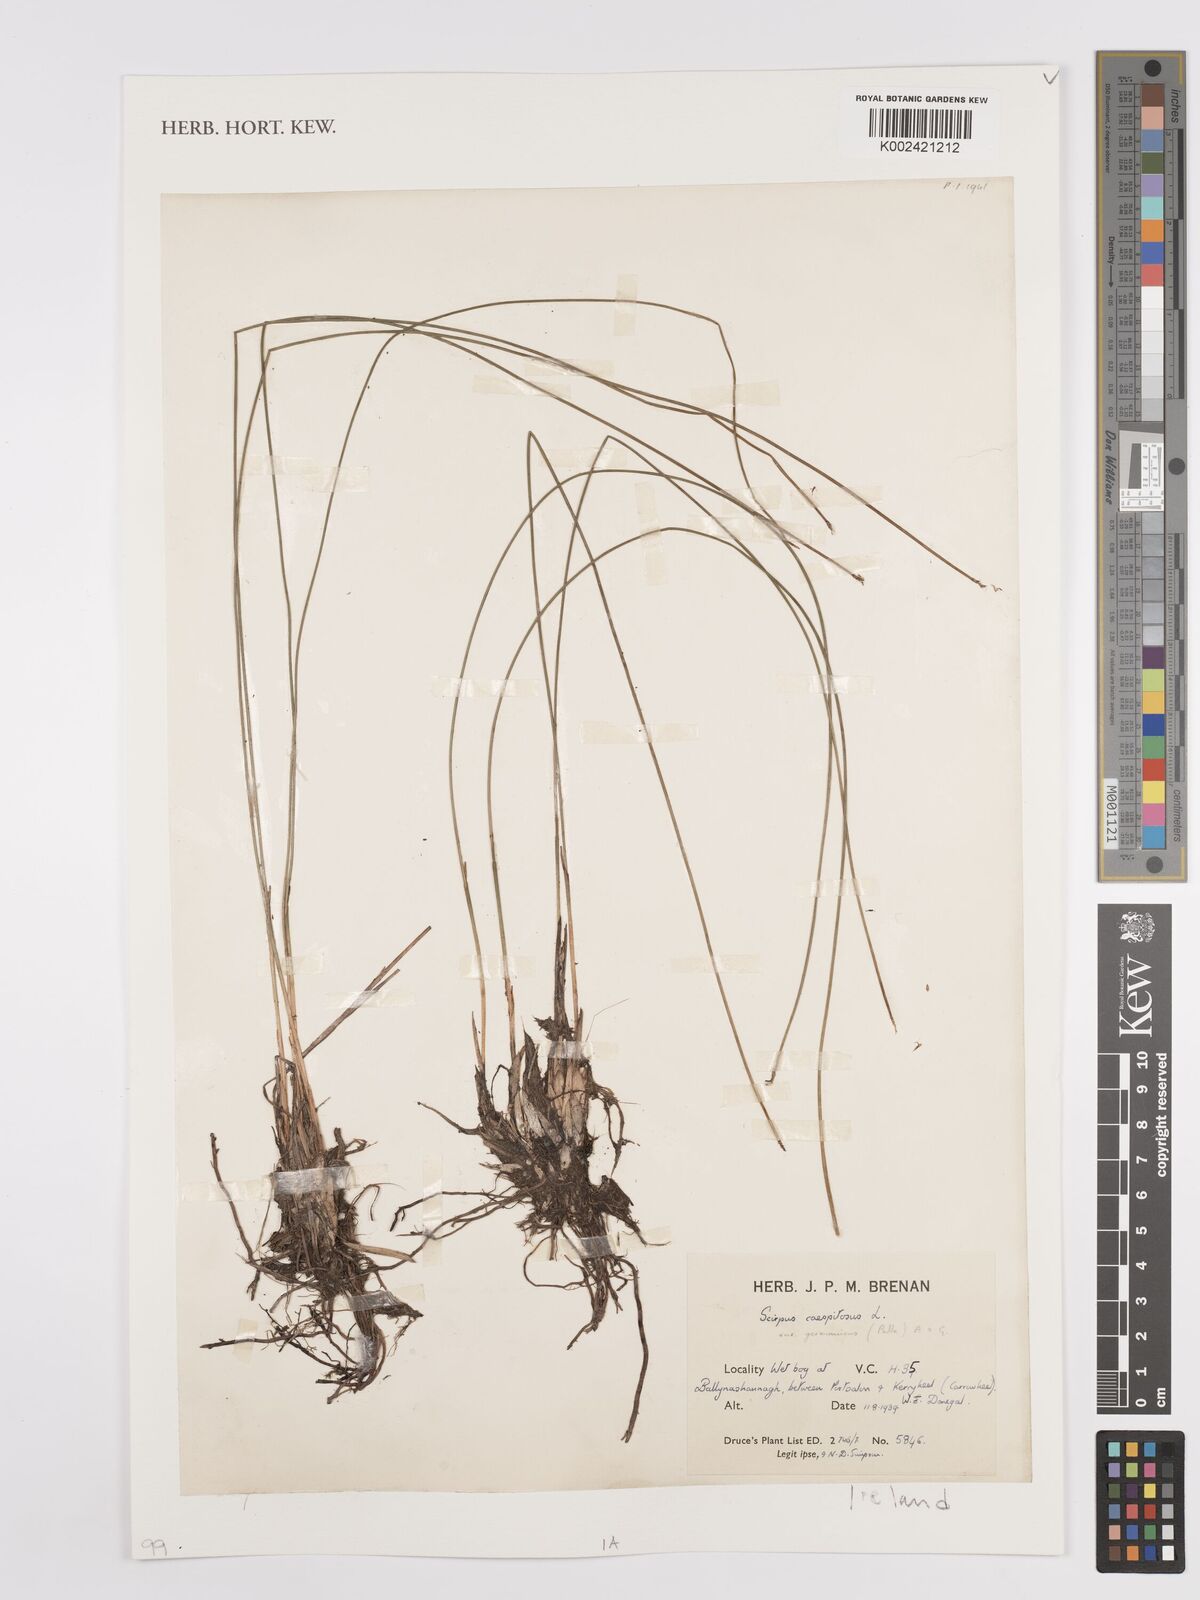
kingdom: Plantae
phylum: Tracheophyta
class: Liliopsida
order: Poales
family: Cyperaceae
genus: Eleocharis
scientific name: Eleocharis palustris
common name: Common spike-rush
